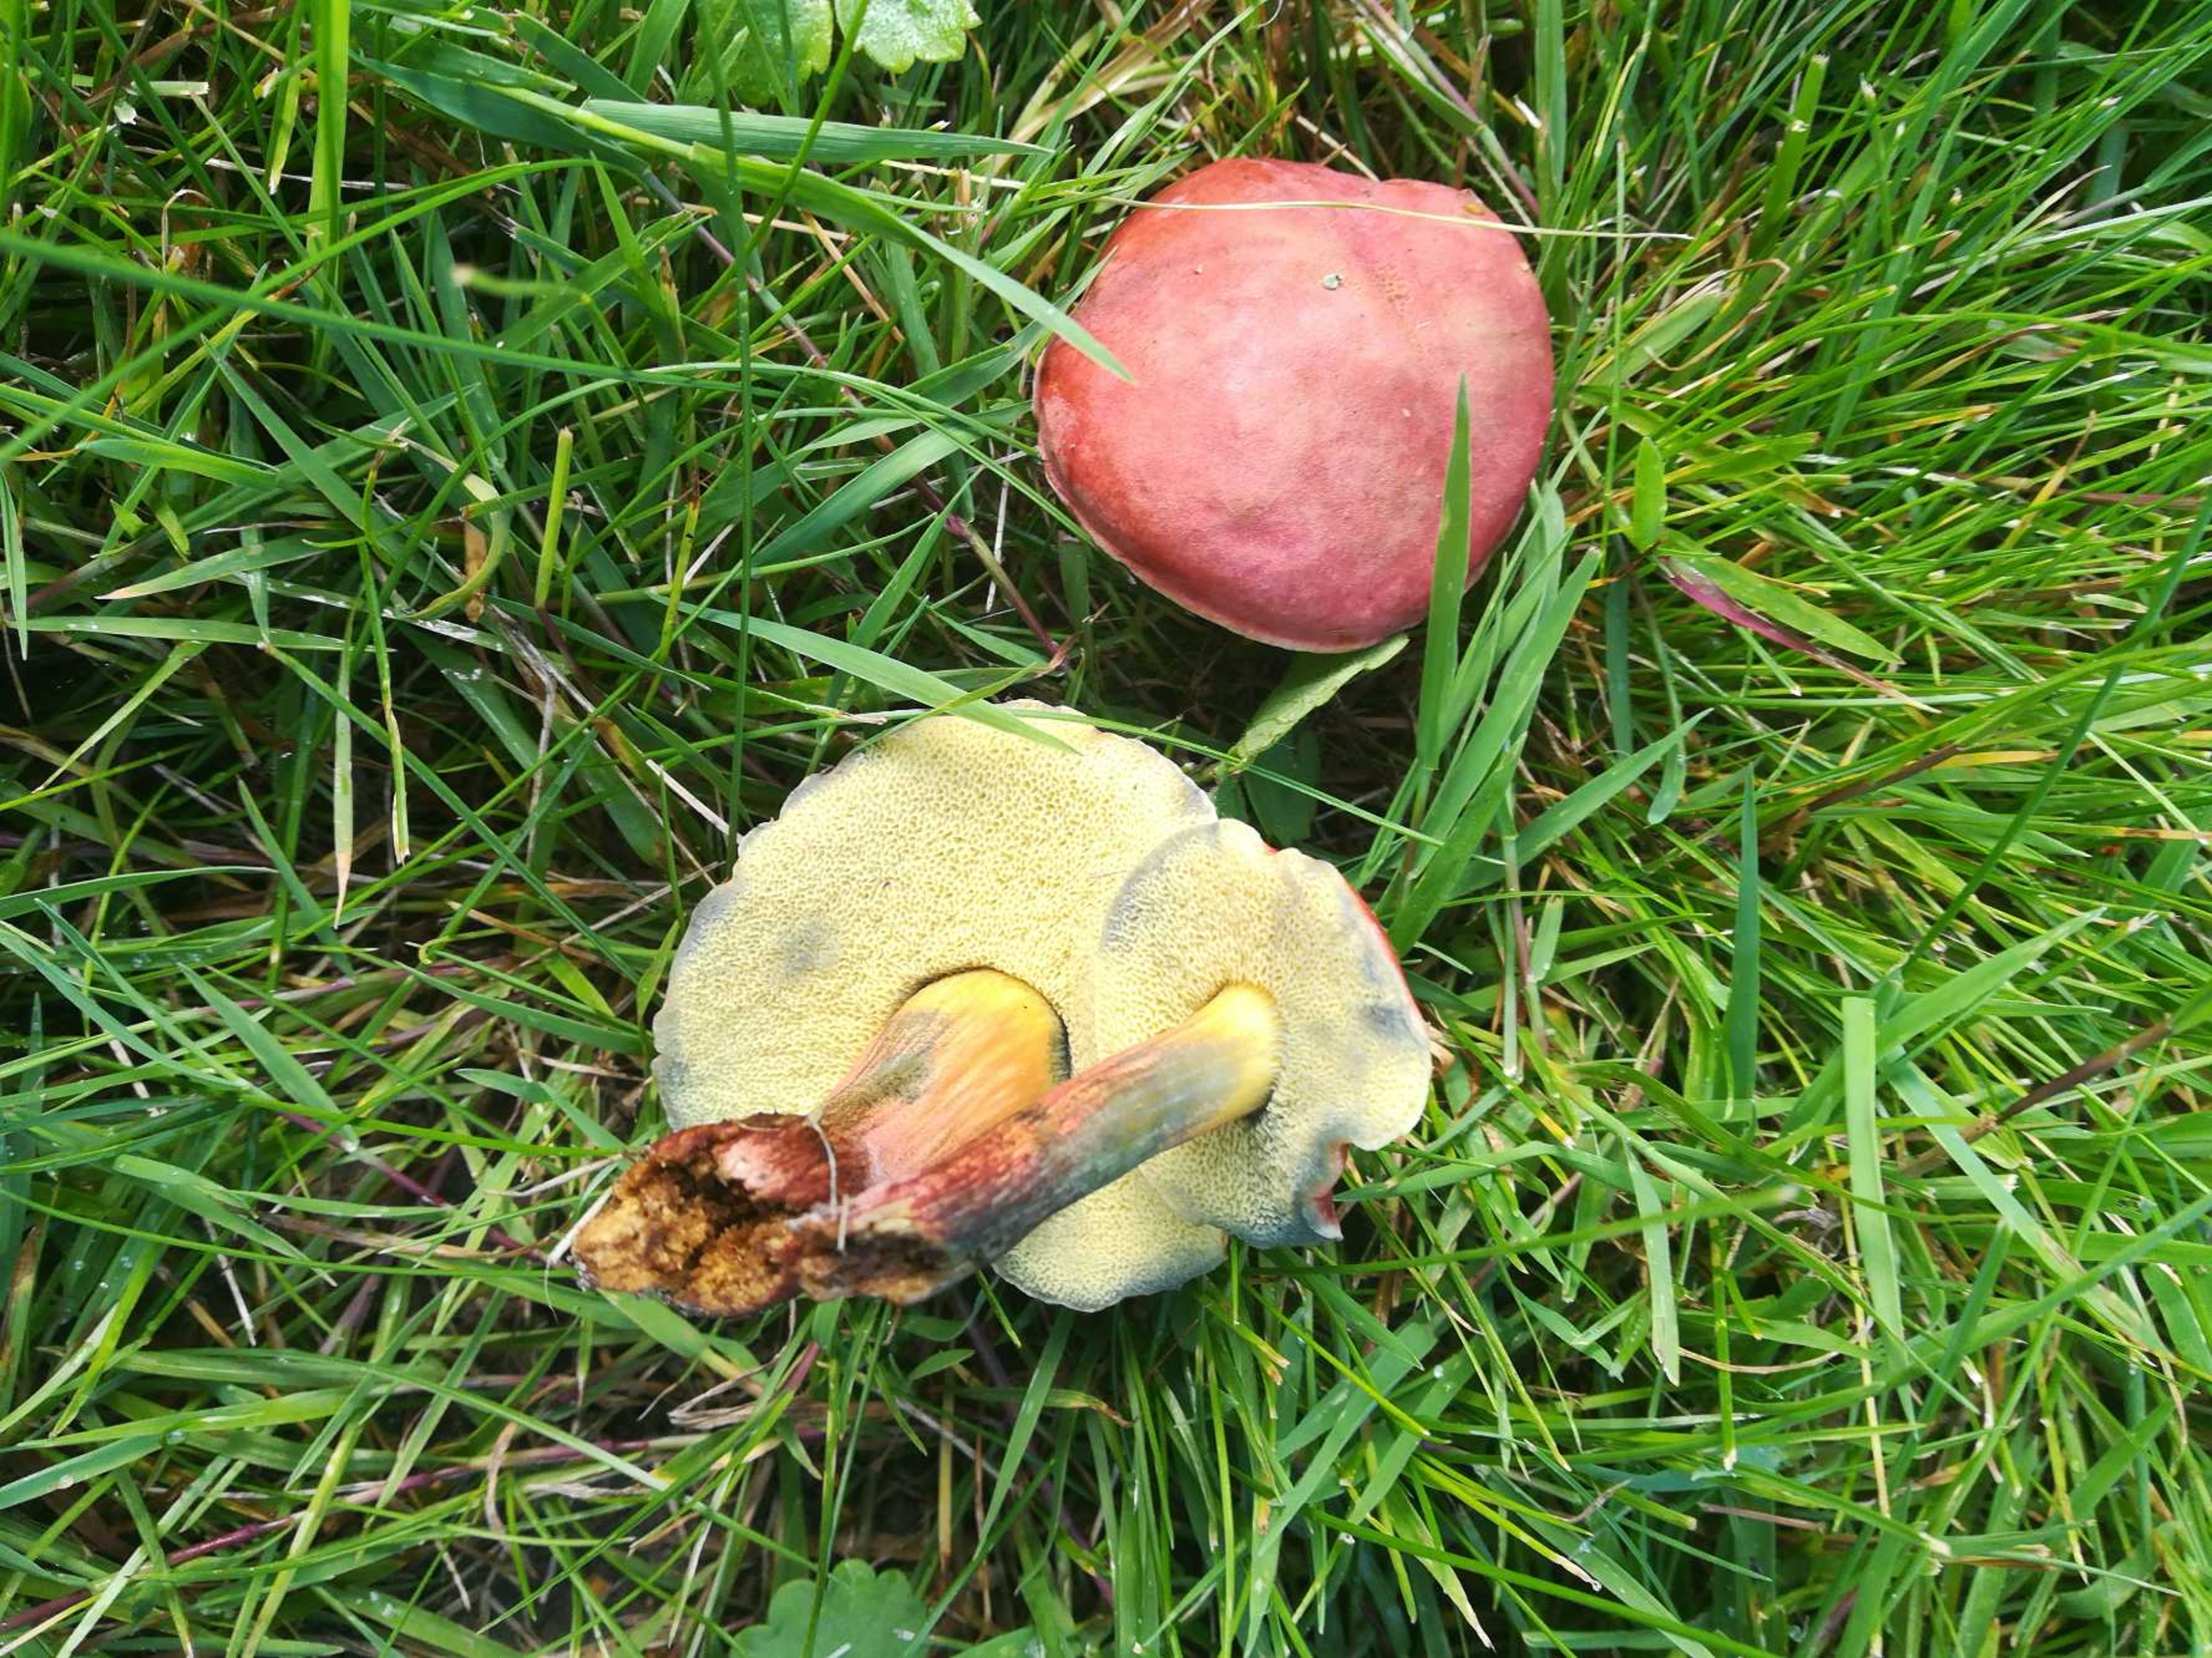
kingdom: Fungi
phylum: Basidiomycota
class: Agaricomycetes
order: Boletales
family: Boletaceae
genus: Hortiboletus
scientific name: Hortiboletus rubellus
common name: Blodrød rørhat
